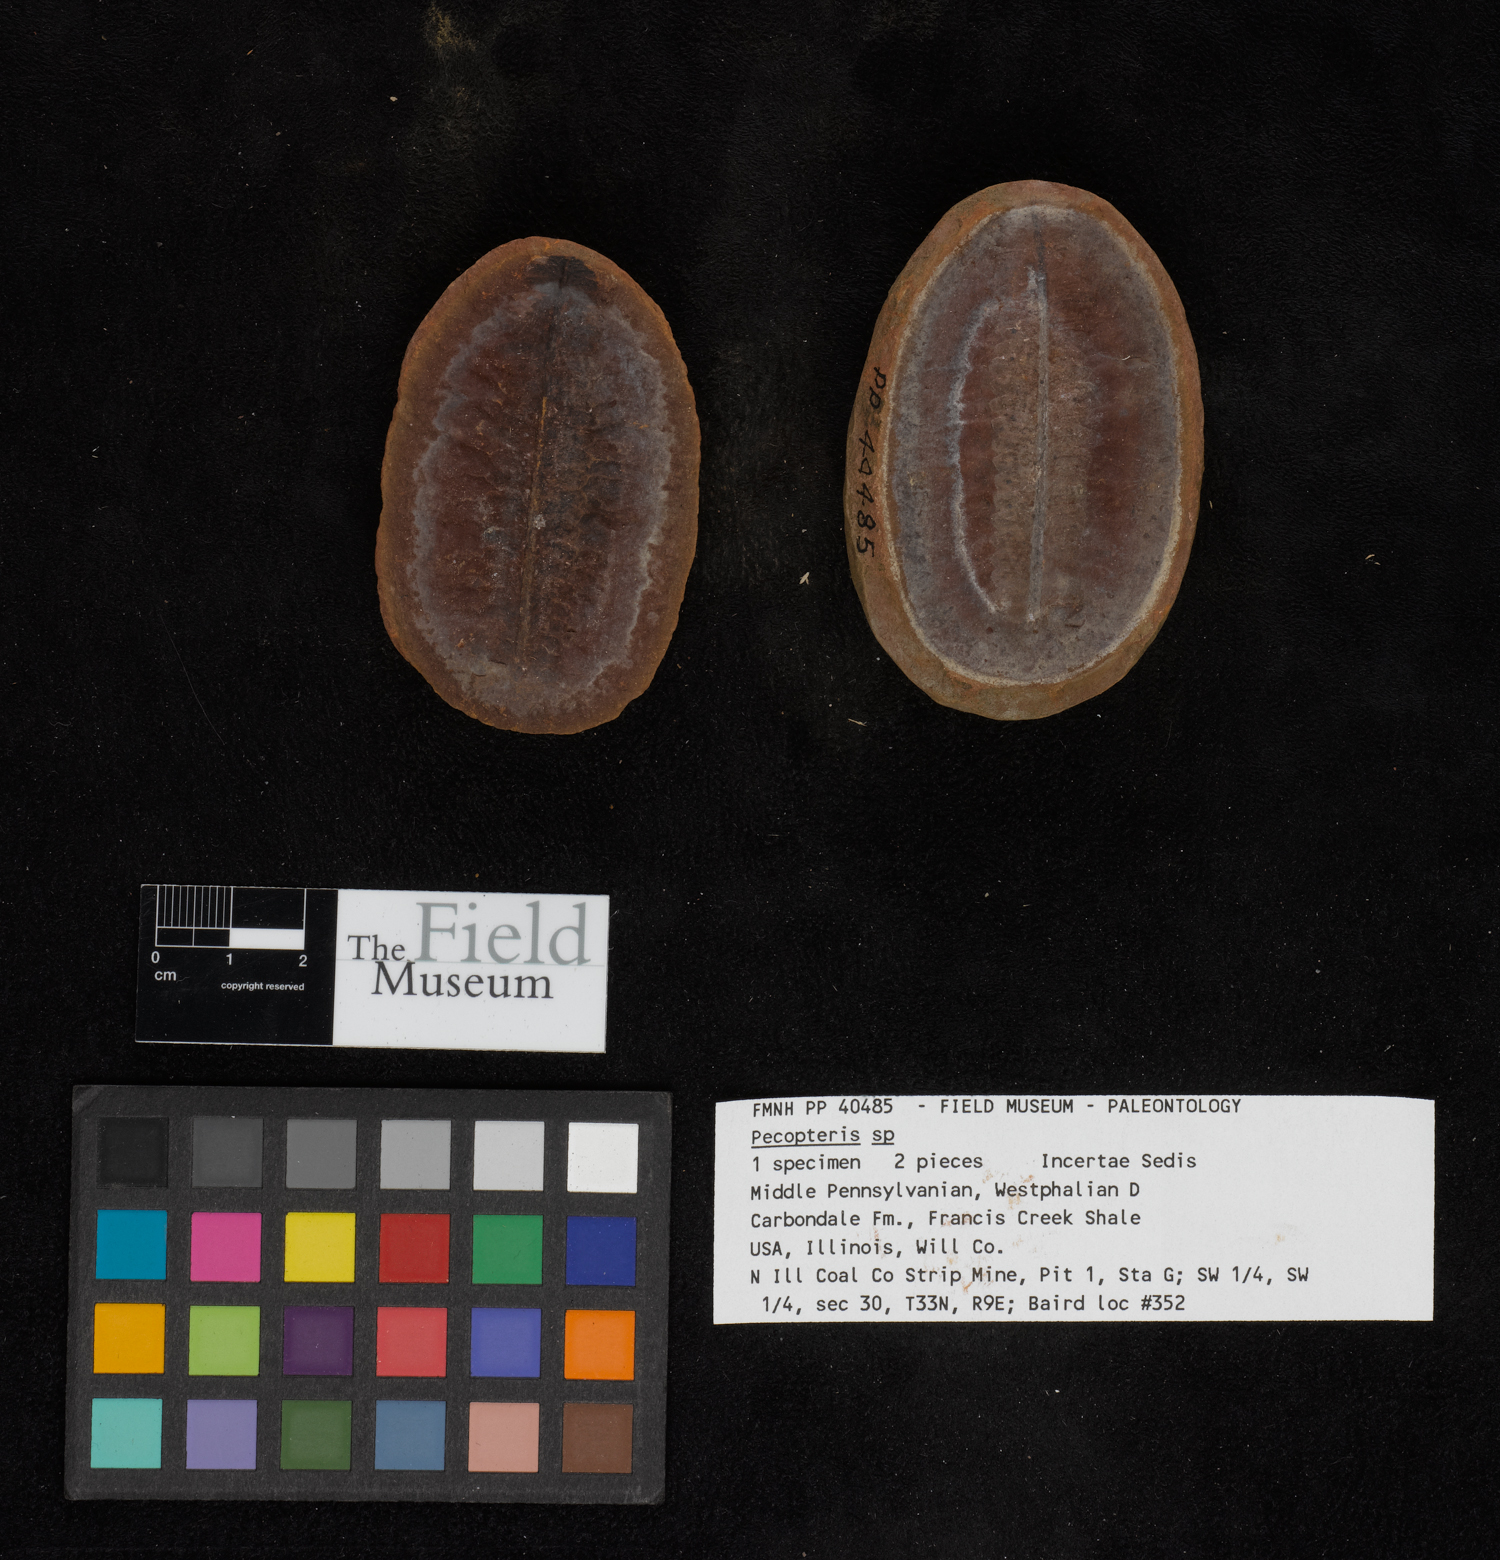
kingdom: Plantae
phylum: Tracheophyta
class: Polypodiopsida
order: Marattiales
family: Asterothecaceae
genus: Pecopteris
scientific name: Pecopteris
